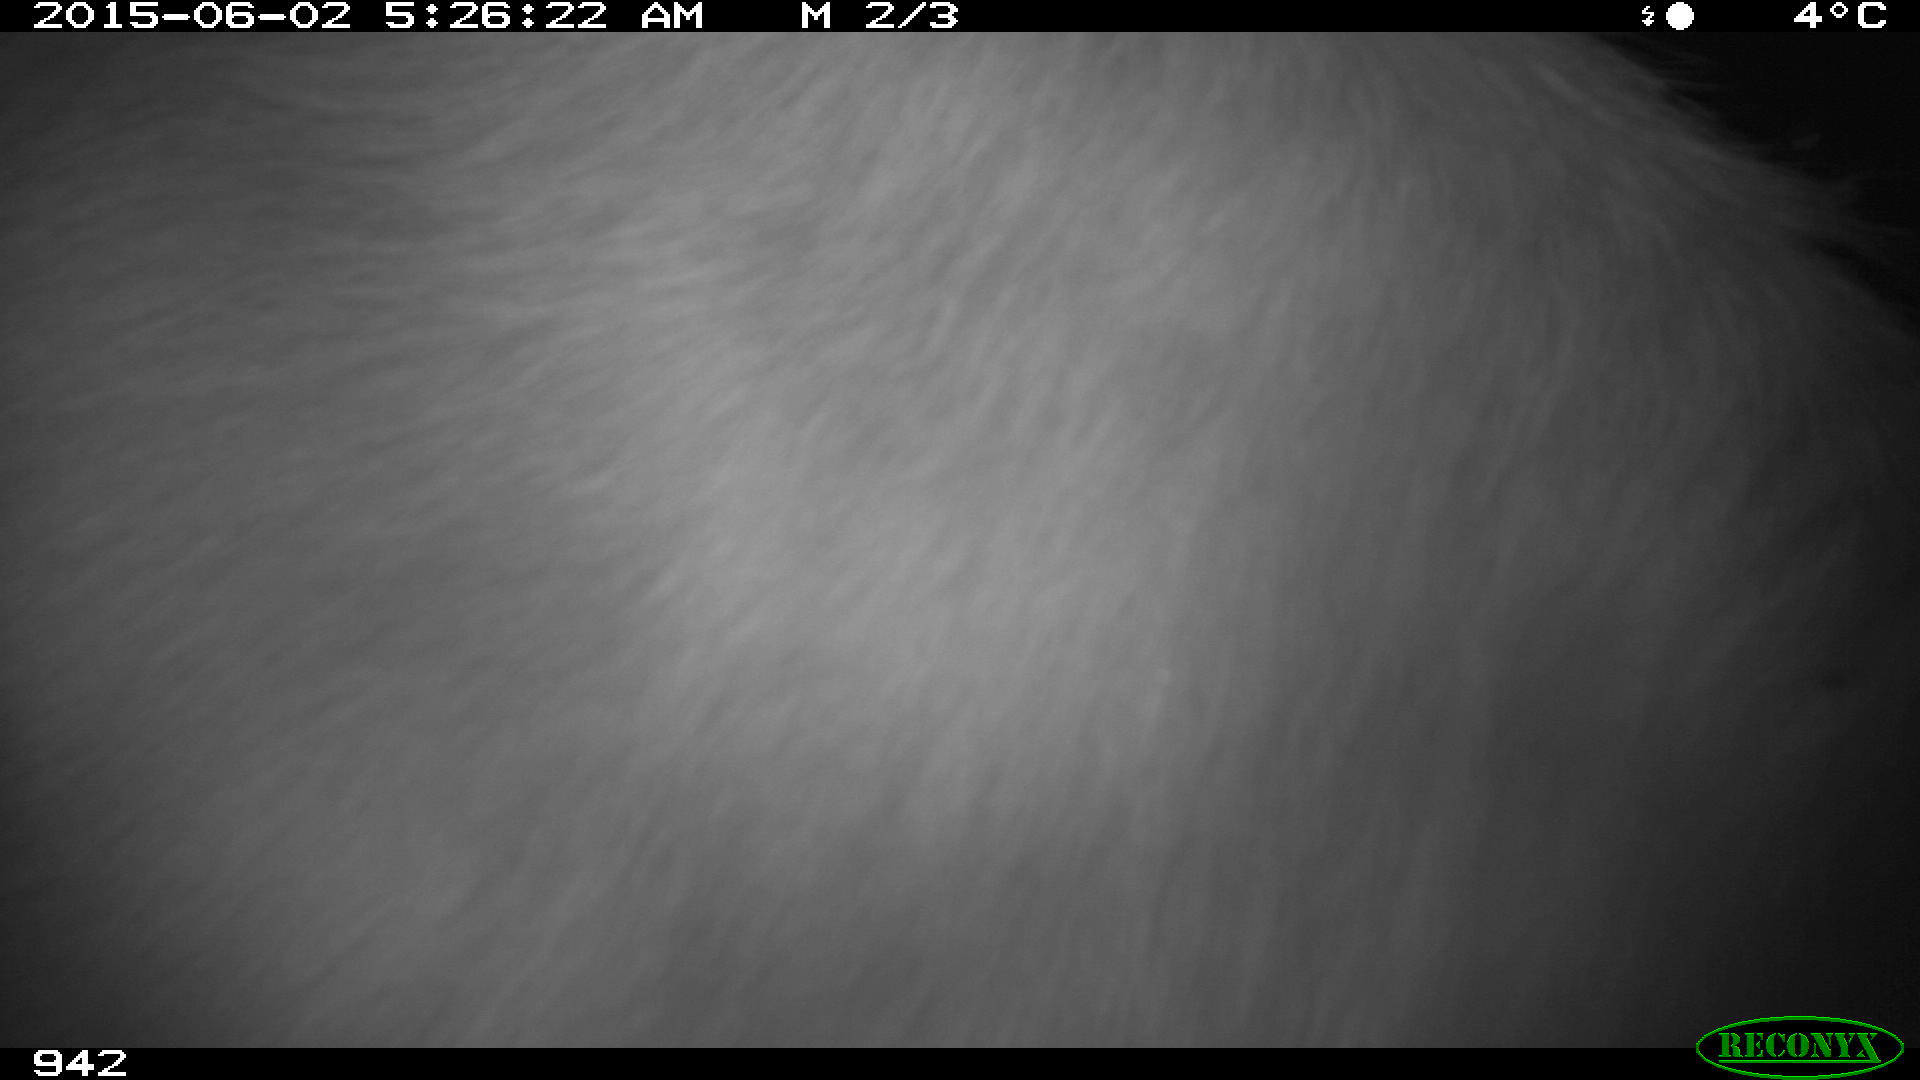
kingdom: Animalia
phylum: Chordata
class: Mammalia
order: Artiodactyla
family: Bovidae
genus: Bos
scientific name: Bos taurus
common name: Domesticated cattle
